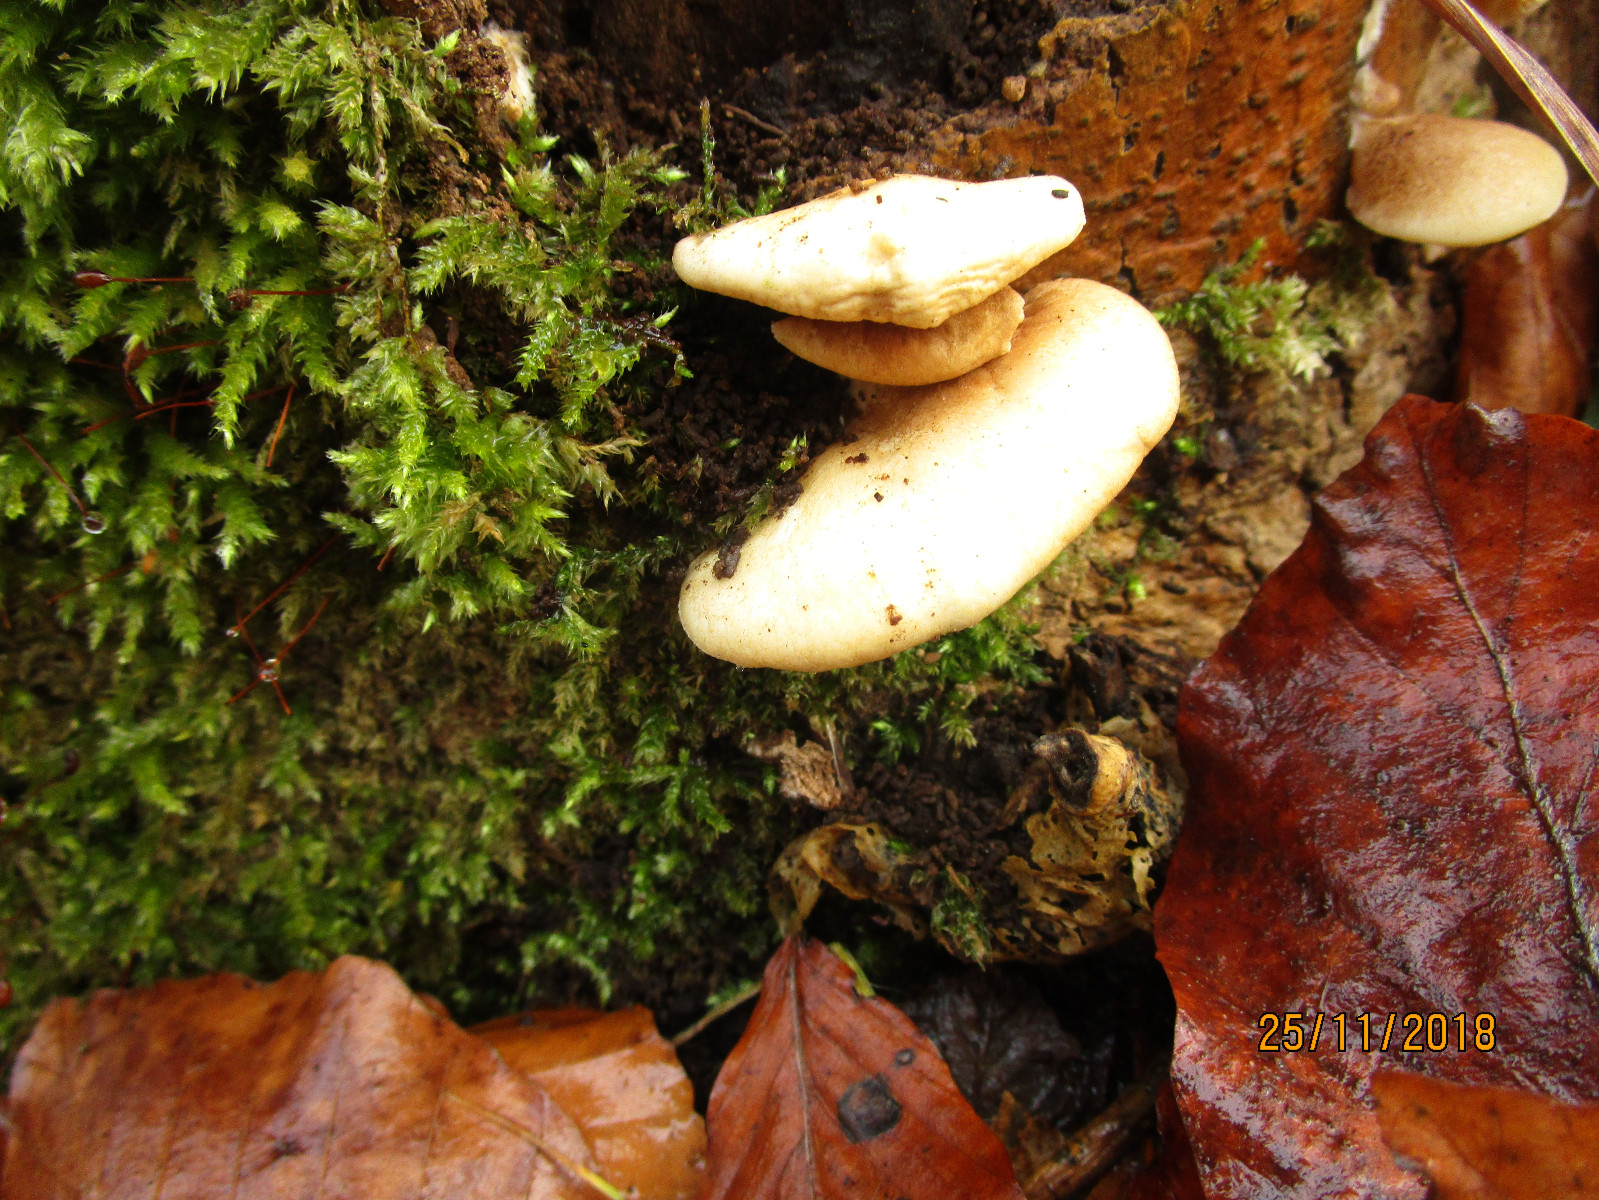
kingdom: Fungi
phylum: Basidiomycota
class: Agaricomycetes
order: Agaricales
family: Crepidotaceae
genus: Crepidotus
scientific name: Crepidotus mollis
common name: blød muslingesvamp
